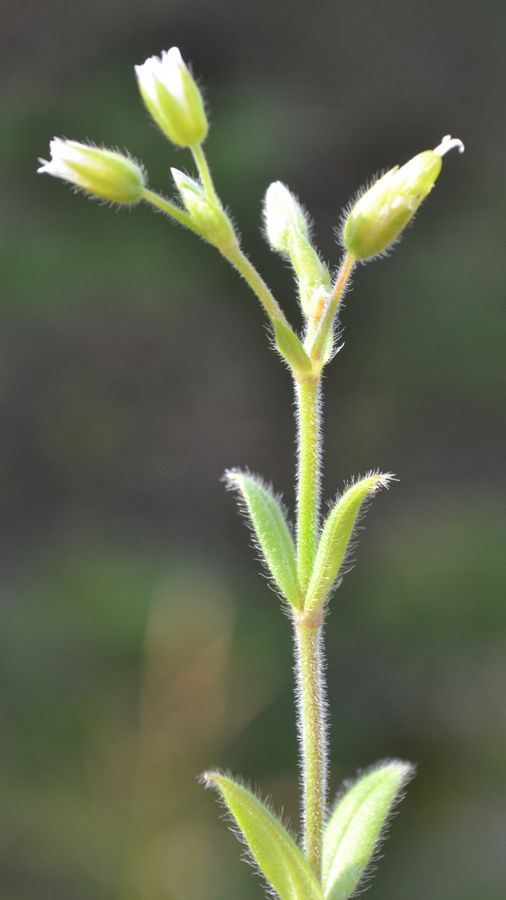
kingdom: Plantae
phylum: Tracheophyta
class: Magnoliopsida
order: Caryophyllales
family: Caryophyllaceae
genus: Cerastium
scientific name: Cerastium holosteoides
